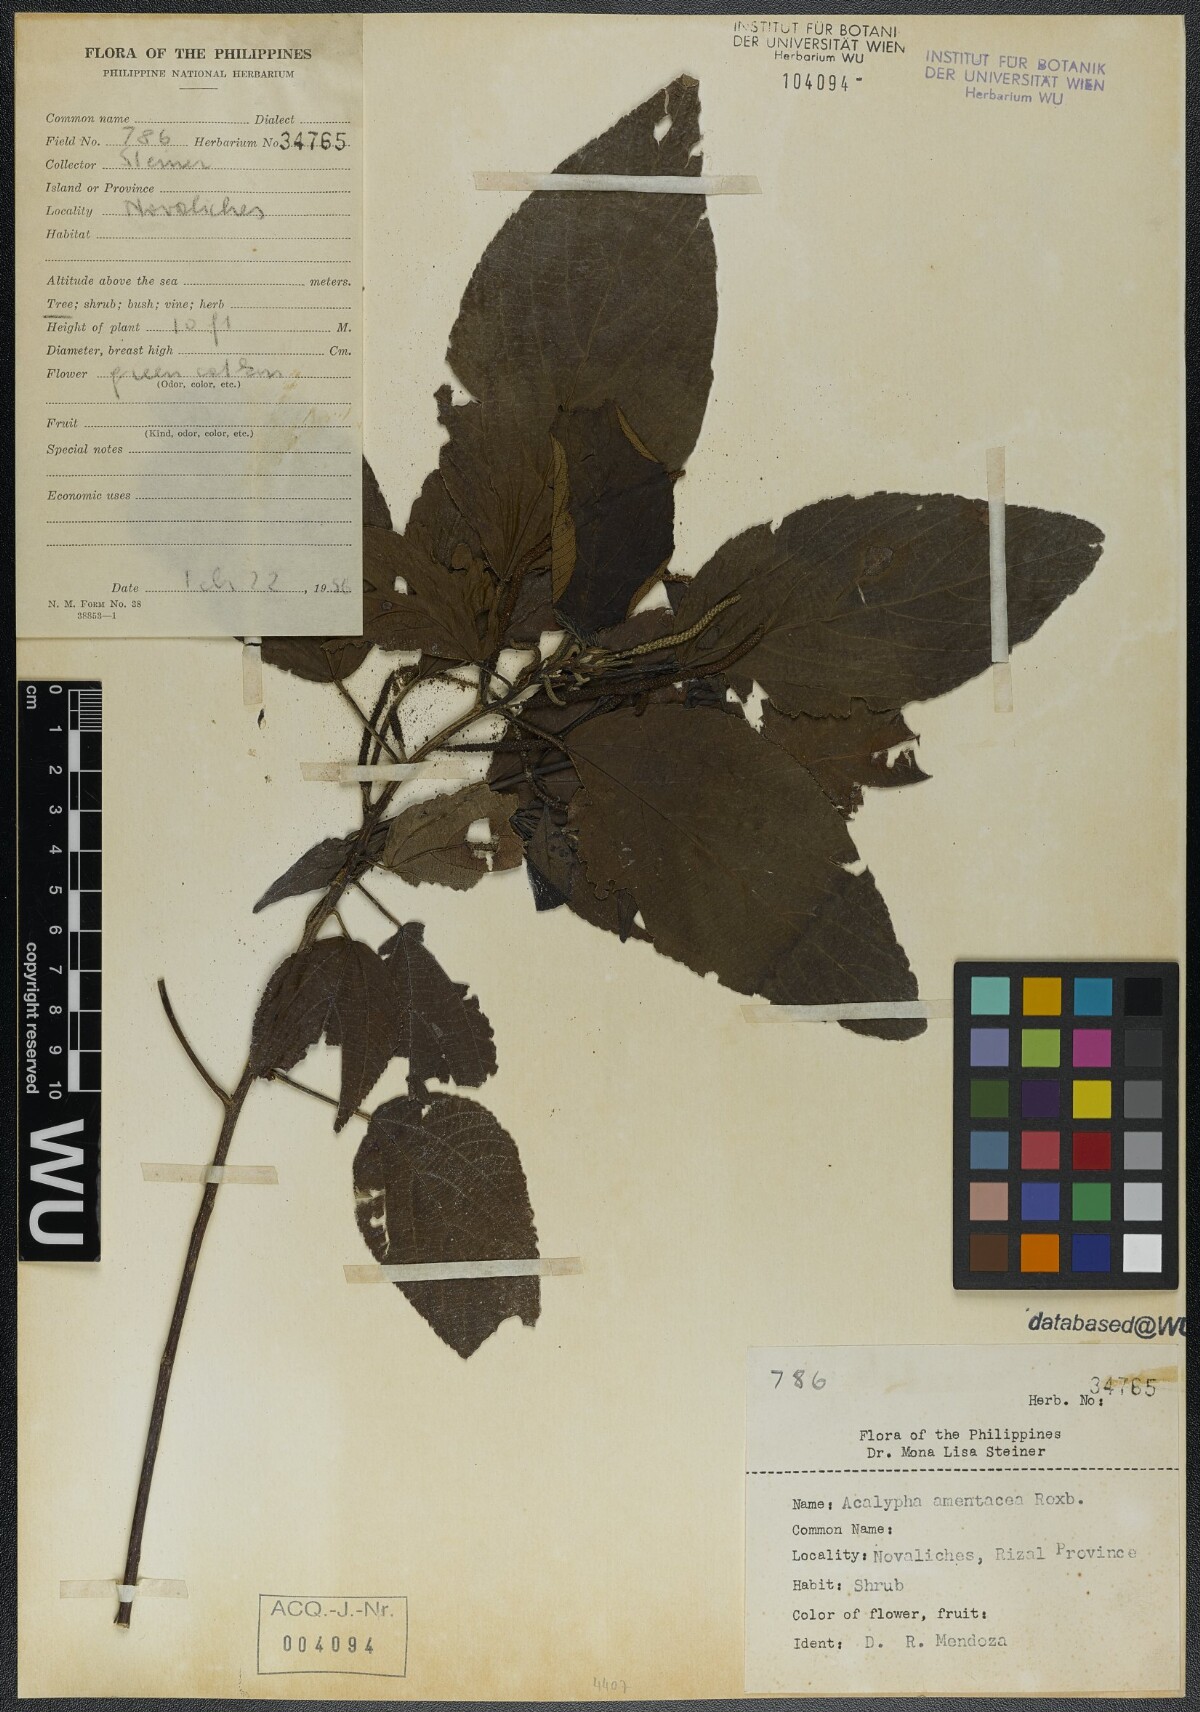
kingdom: Plantae
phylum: Tracheophyta
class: Magnoliopsida
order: Malpighiales
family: Euphorbiaceae
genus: Acalypha
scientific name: Acalypha amentacea
